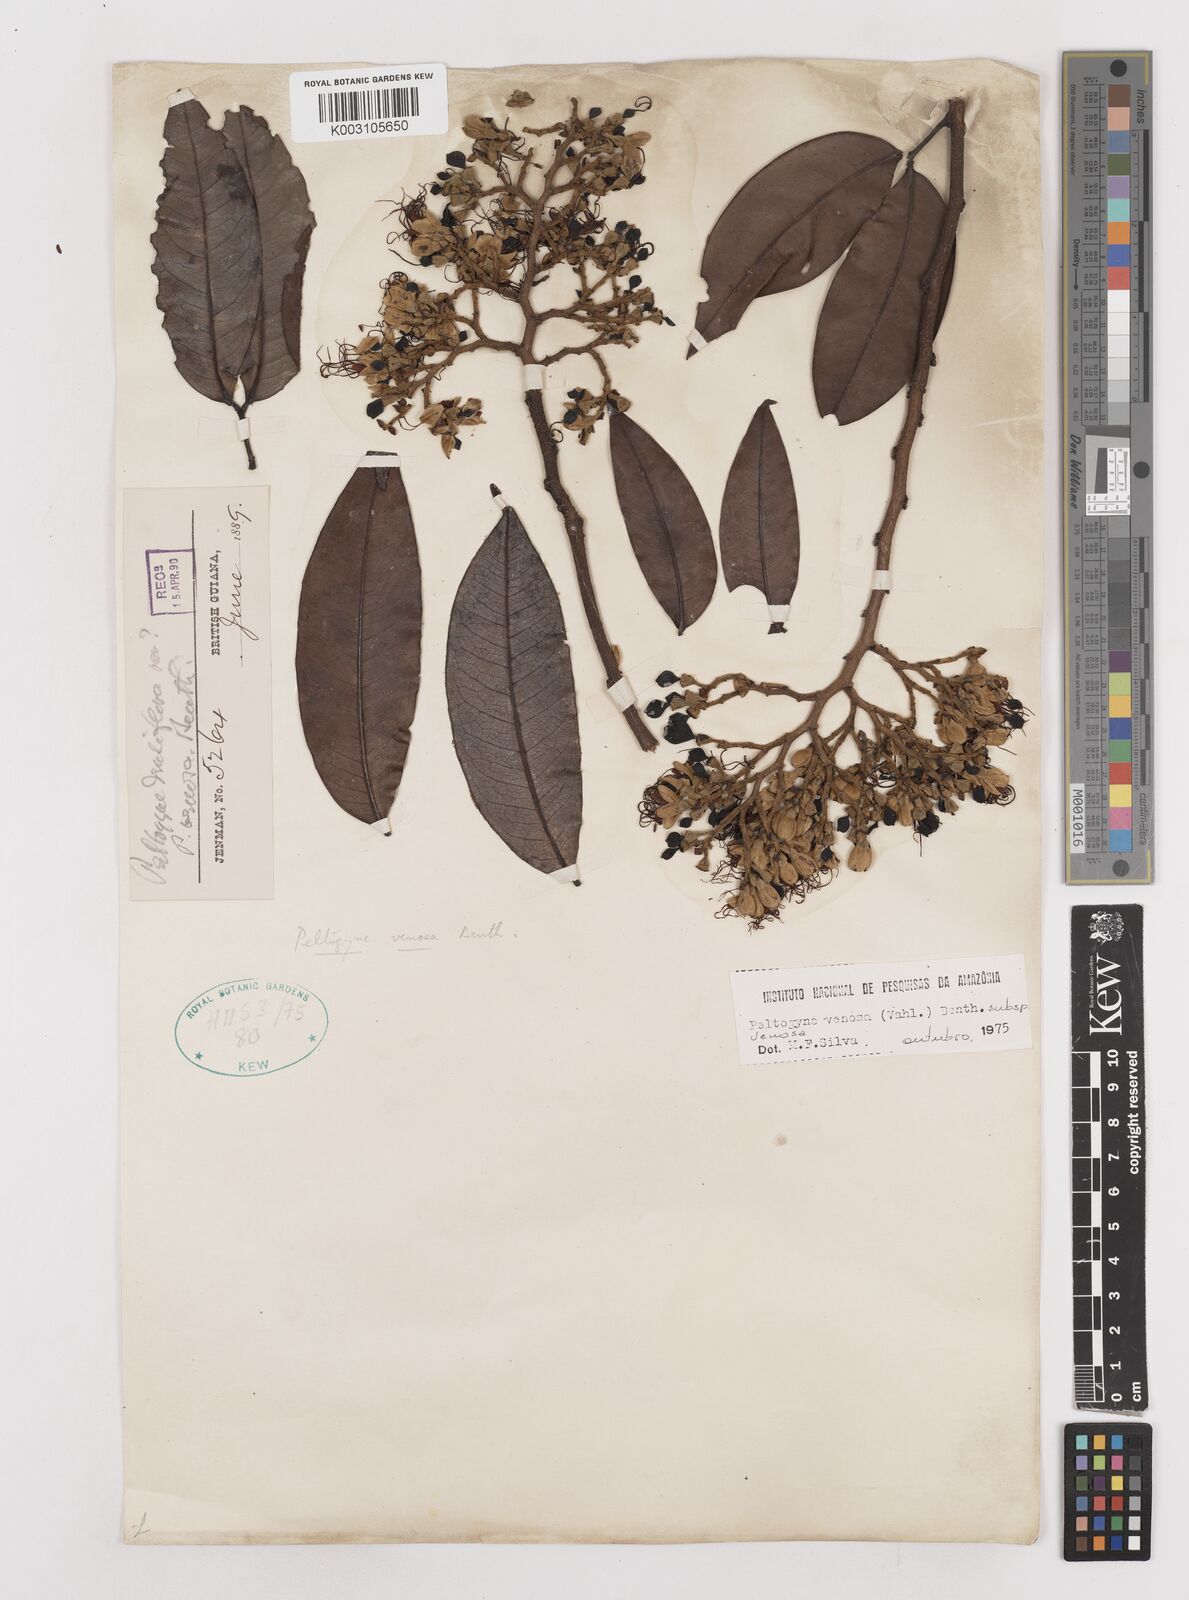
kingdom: Plantae
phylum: Tracheophyta
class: Magnoliopsida
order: Fabales
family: Fabaceae
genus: Peltogyne
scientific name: Peltogyne venosa
